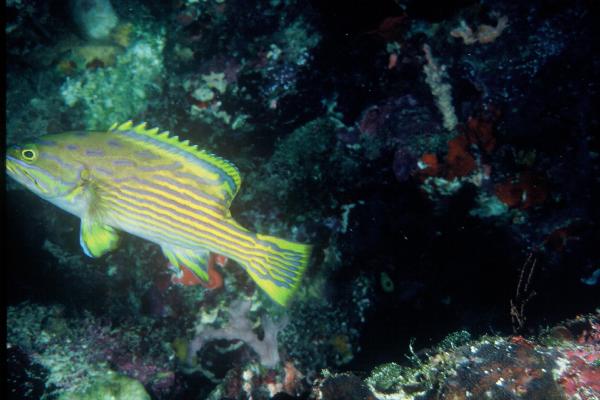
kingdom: Animalia
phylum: Chordata
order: Perciformes
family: Serranidae
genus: Cephalopholis
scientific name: Cephalopholis polleni
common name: Harlequin hind
